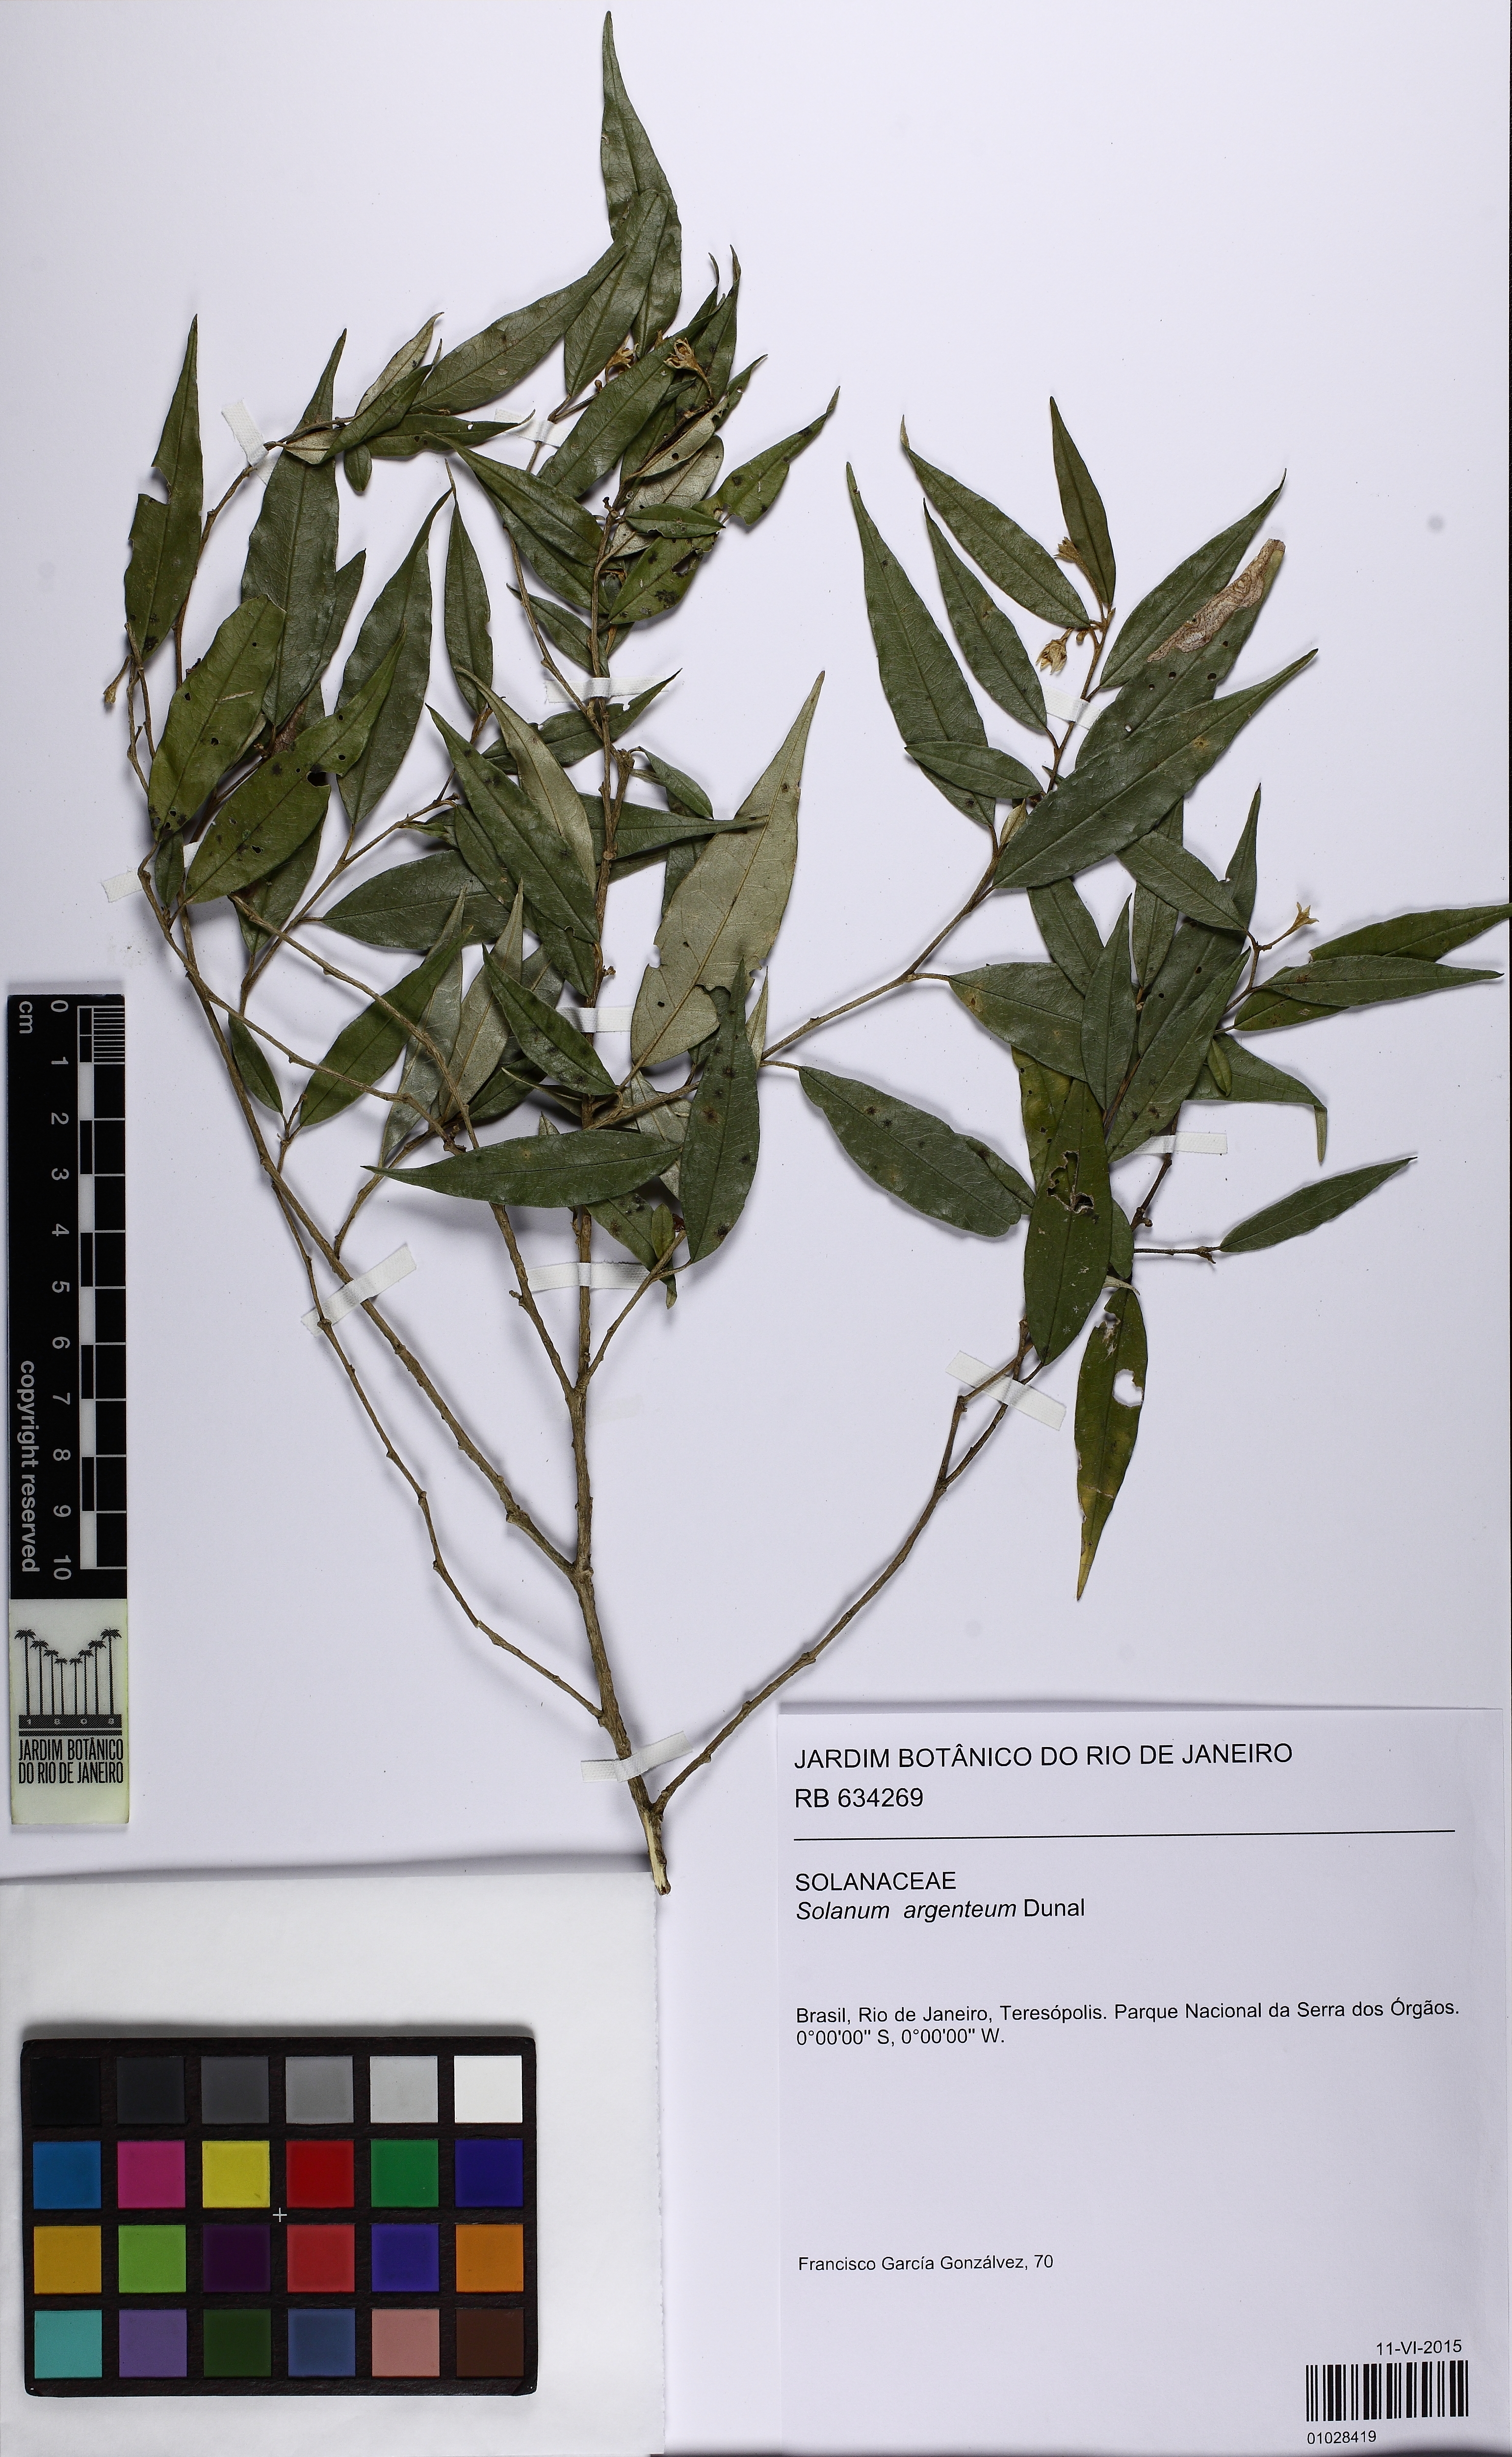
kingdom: Plantae
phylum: Tracheophyta
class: Magnoliopsida
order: Solanales
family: Solanaceae
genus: Solanum
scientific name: Solanum swartzianum
